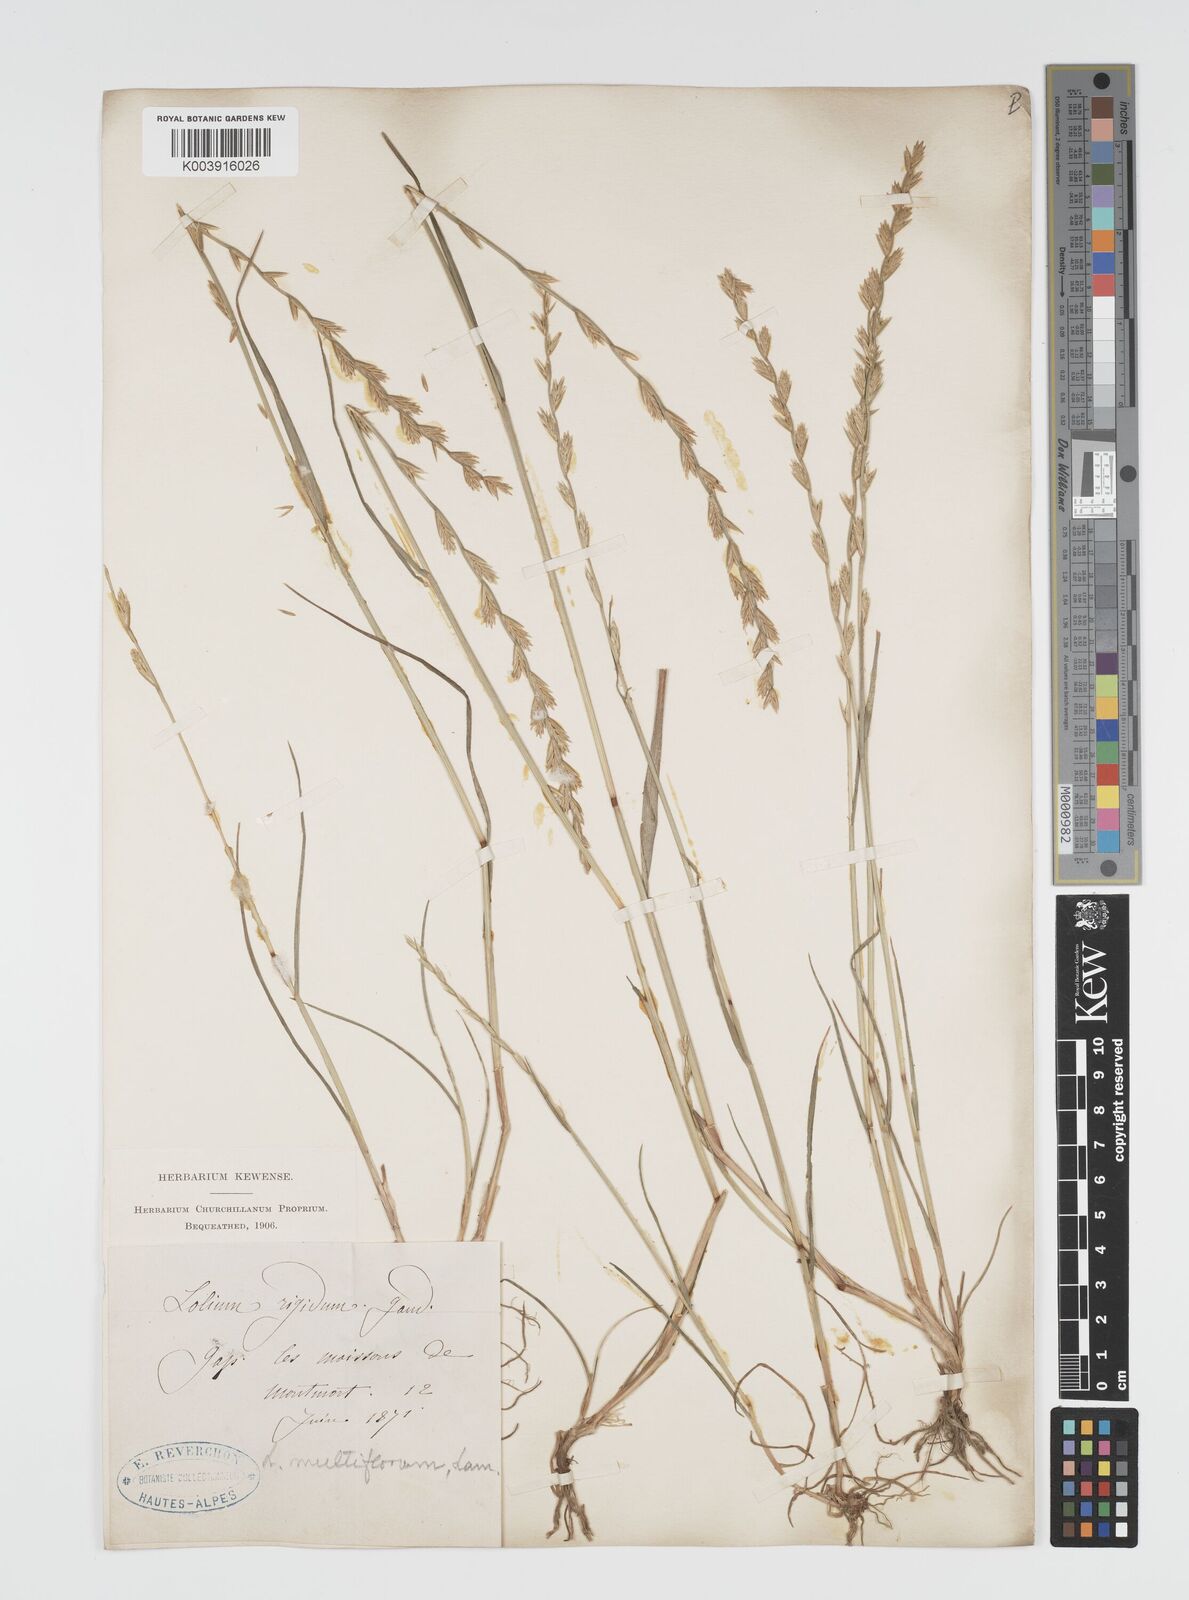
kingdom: Plantae
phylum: Tracheophyta
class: Liliopsida
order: Poales
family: Poaceae
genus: Lolium
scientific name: Lolium multiflorum
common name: Annual ryegrass
